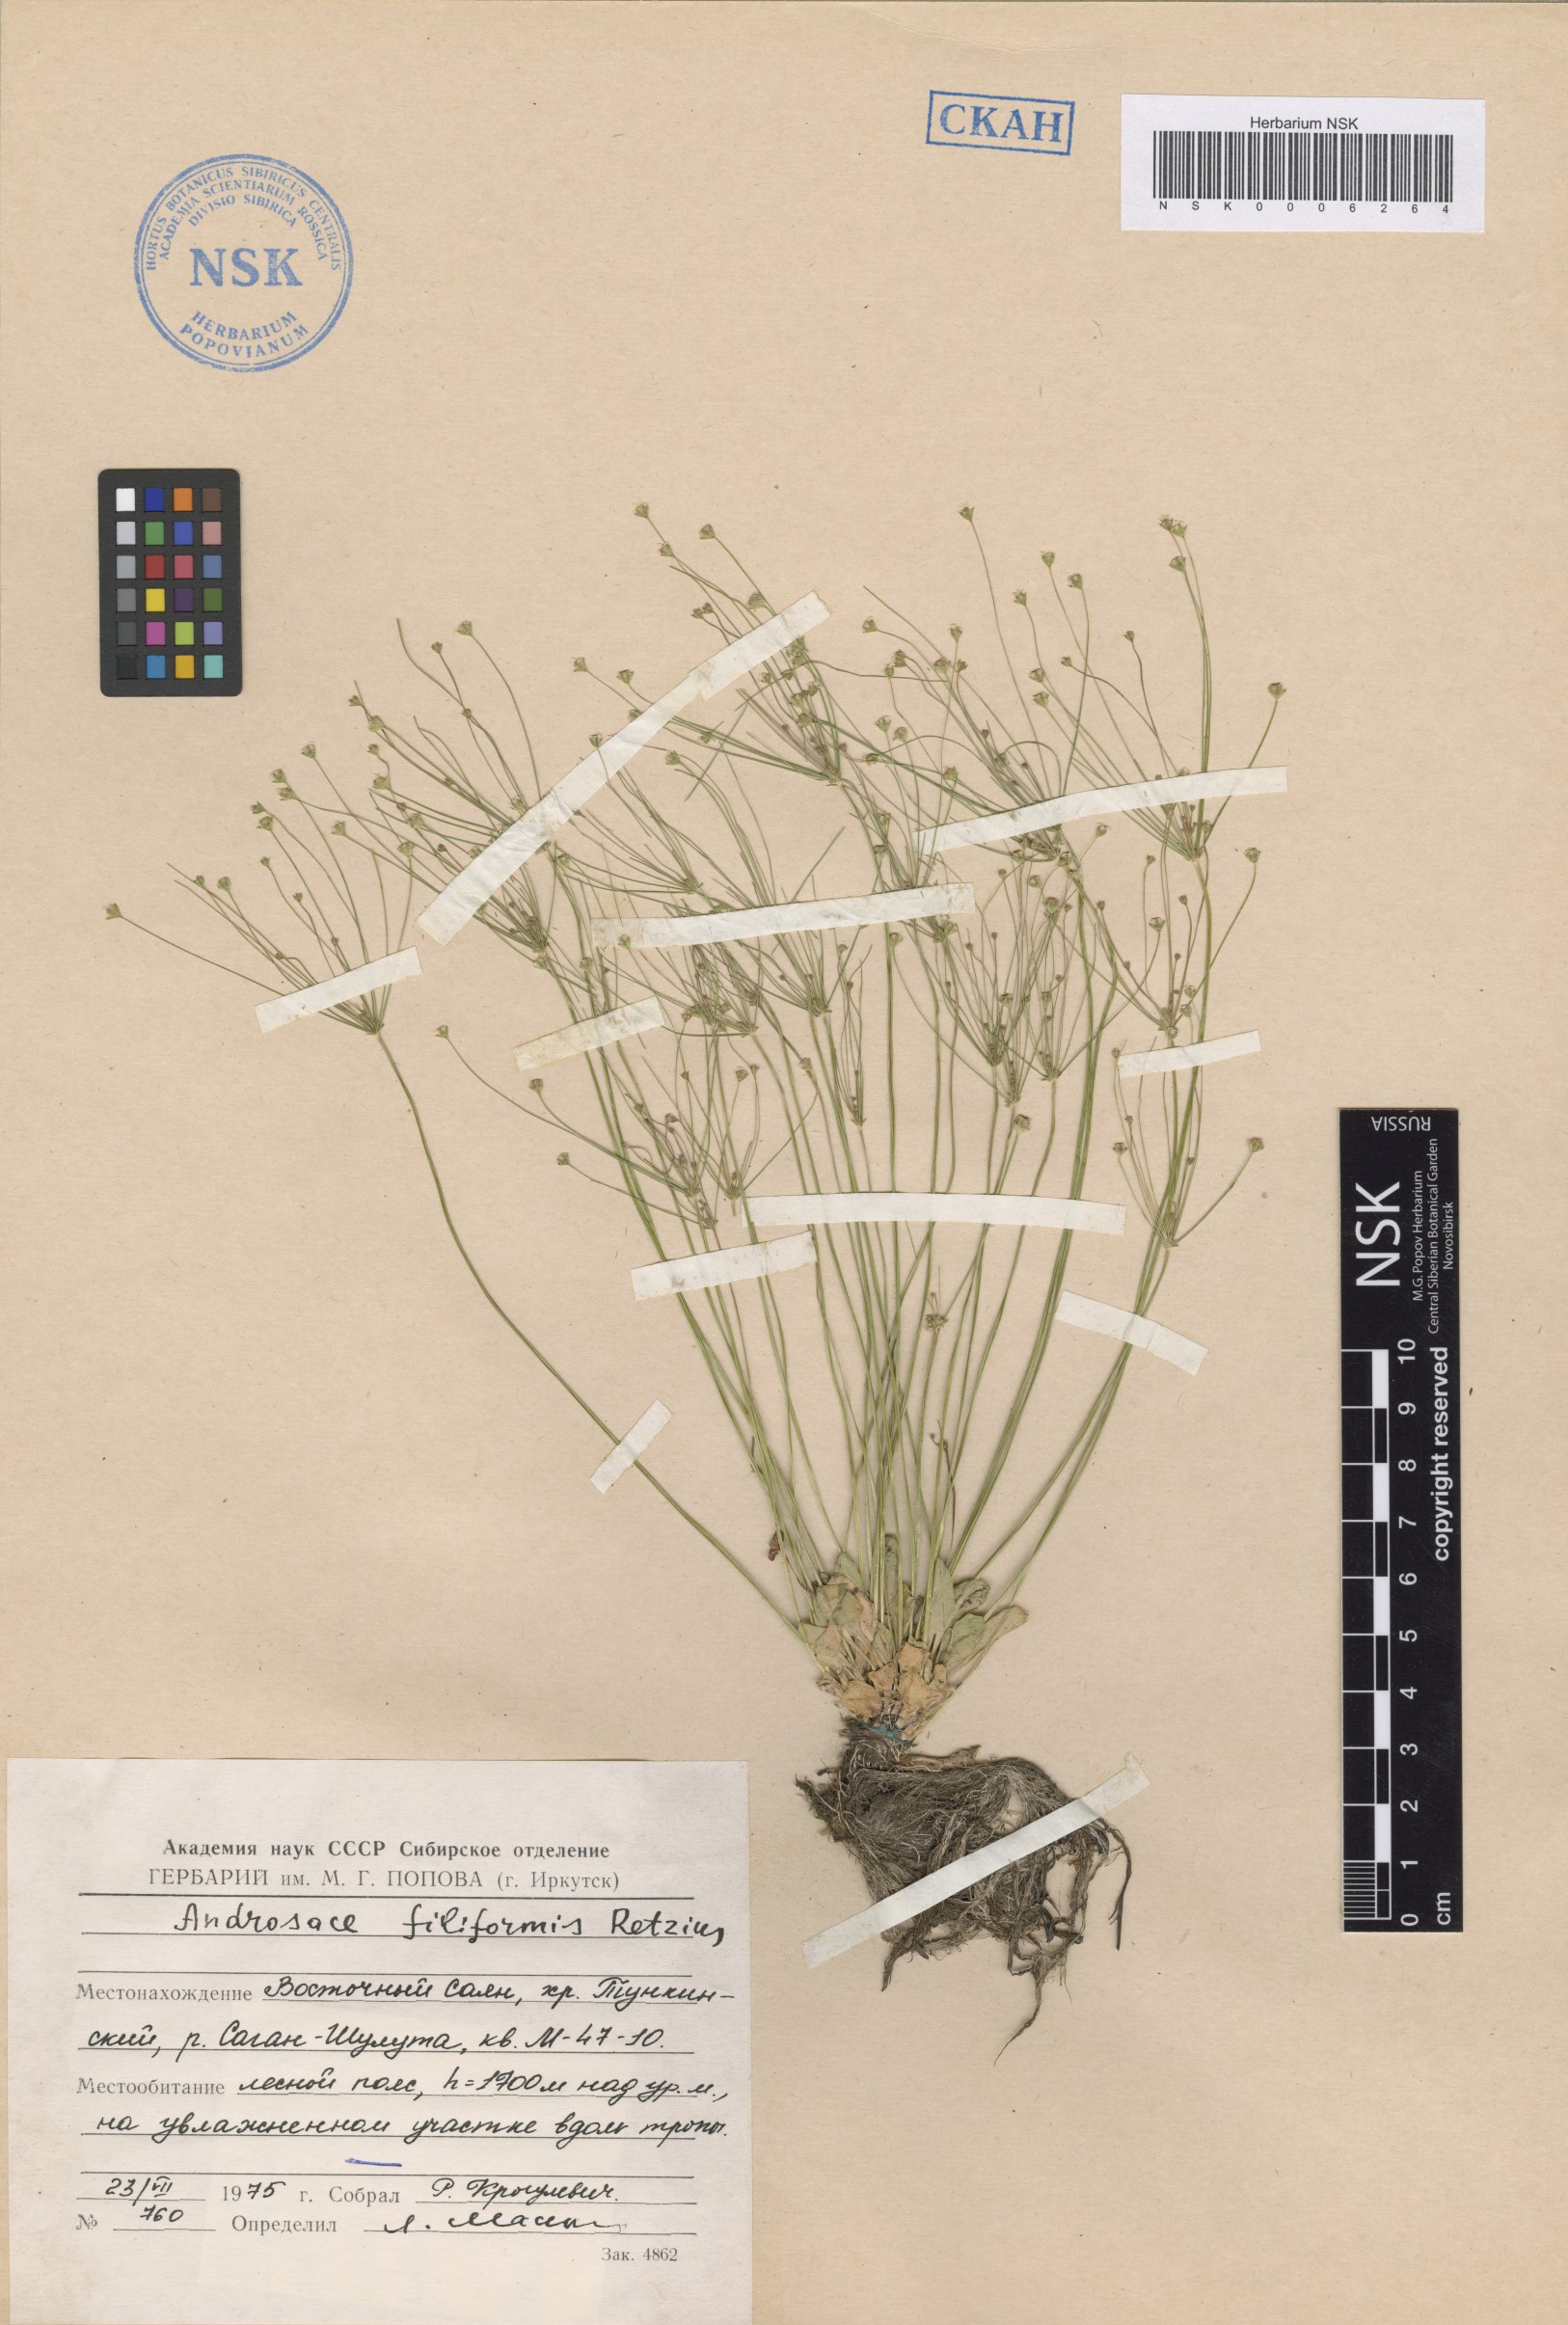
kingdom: Plantae
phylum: Tracheophyta
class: Magnoliopsida
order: Ericales
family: Primulaceae
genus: Androsace
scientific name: Androsace filiformis
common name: Filiform rock jasmine
